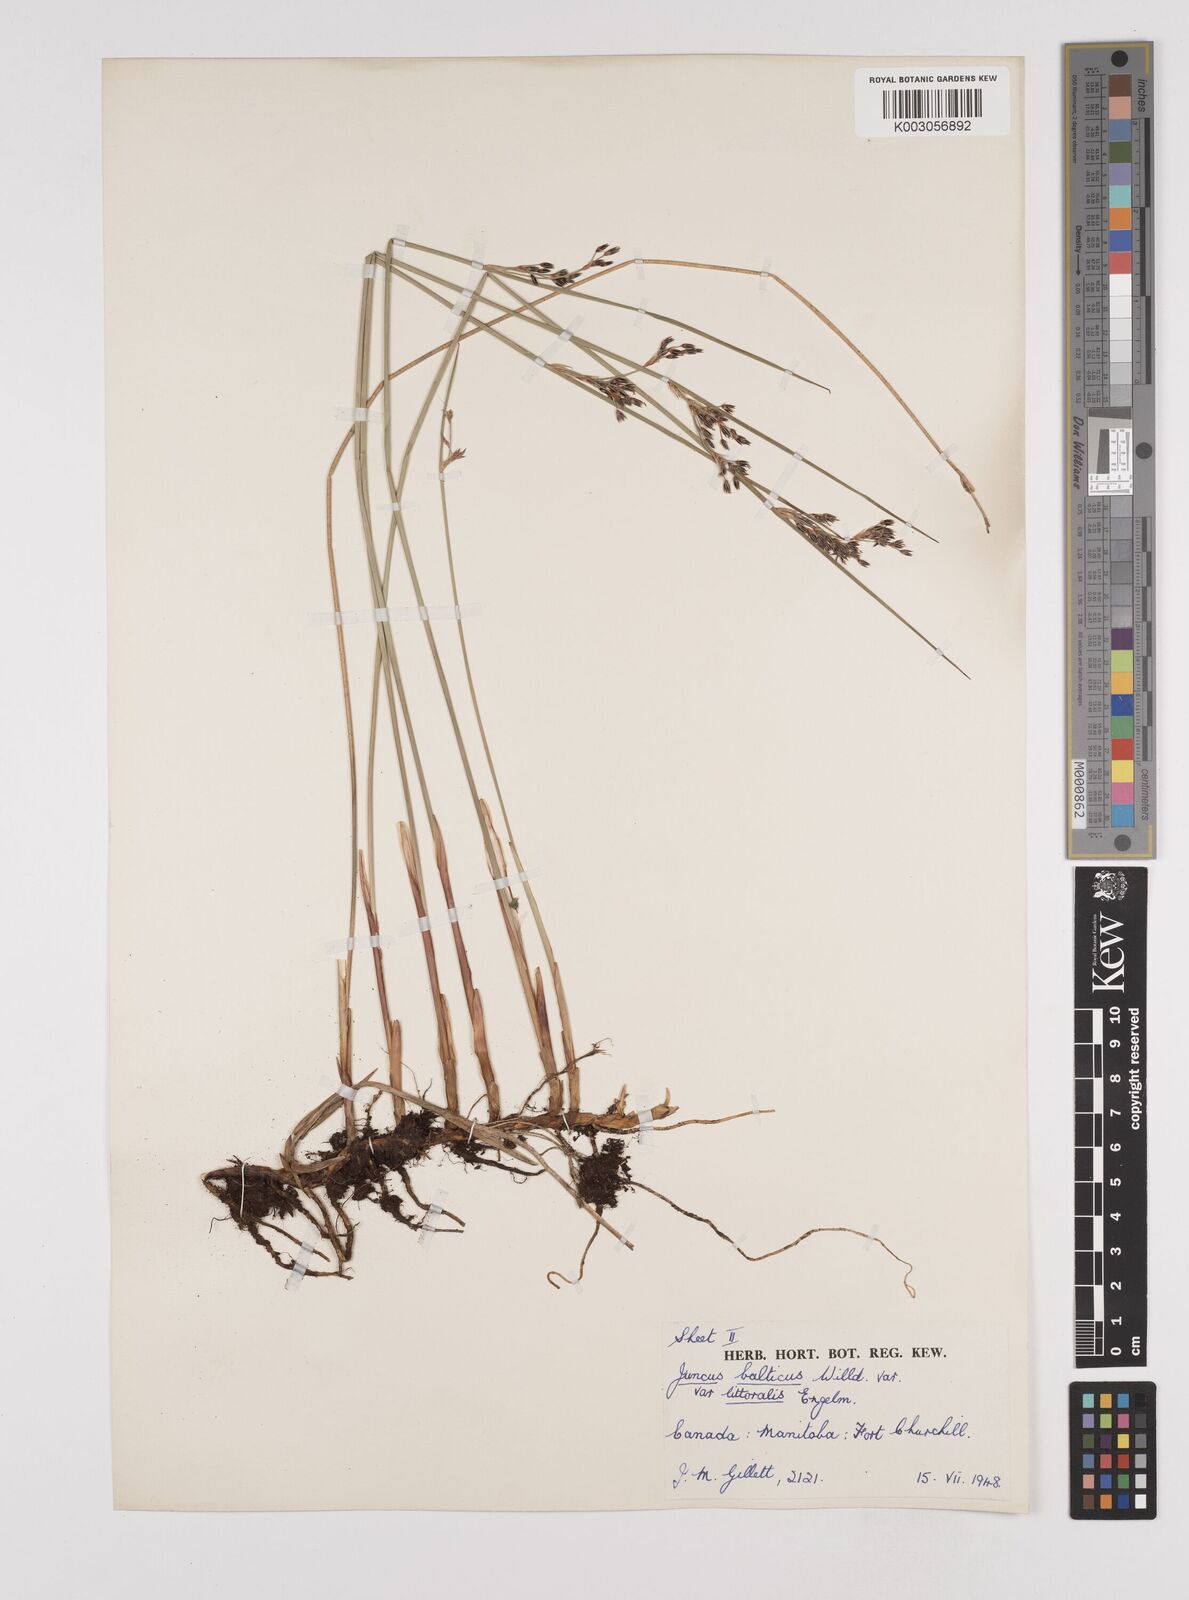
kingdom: Plantae
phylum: Tracheophyta
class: Liliopsida
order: Poales
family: Juncaceae
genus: Juncus
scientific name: Juncus balticus
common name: Baltic rush
